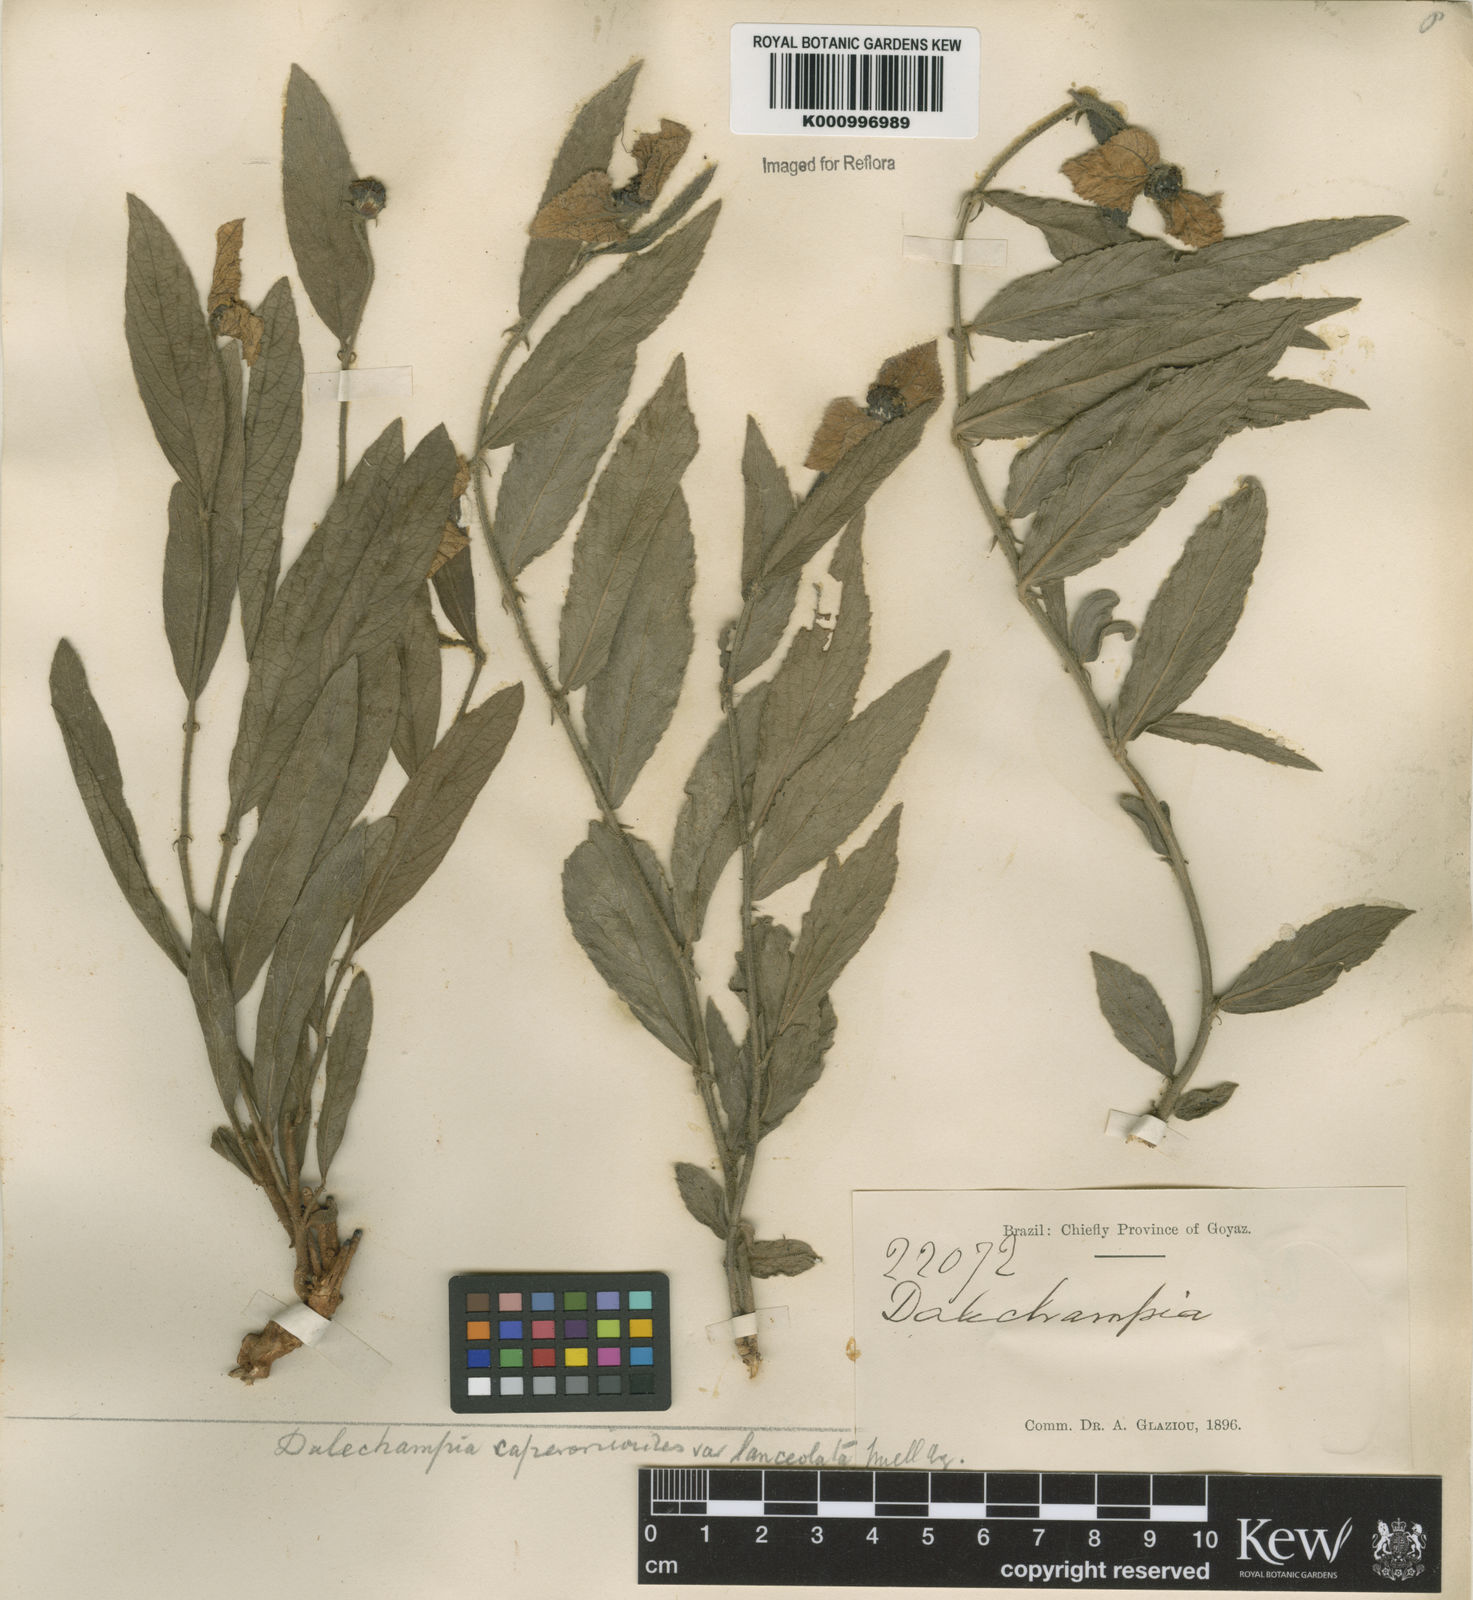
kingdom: Plantae
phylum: Tracheophyta
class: Magnoliopsida
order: Malpighiales
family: Euphorbiaceae
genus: Dalechampia
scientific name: Dalechampia caperonioides
